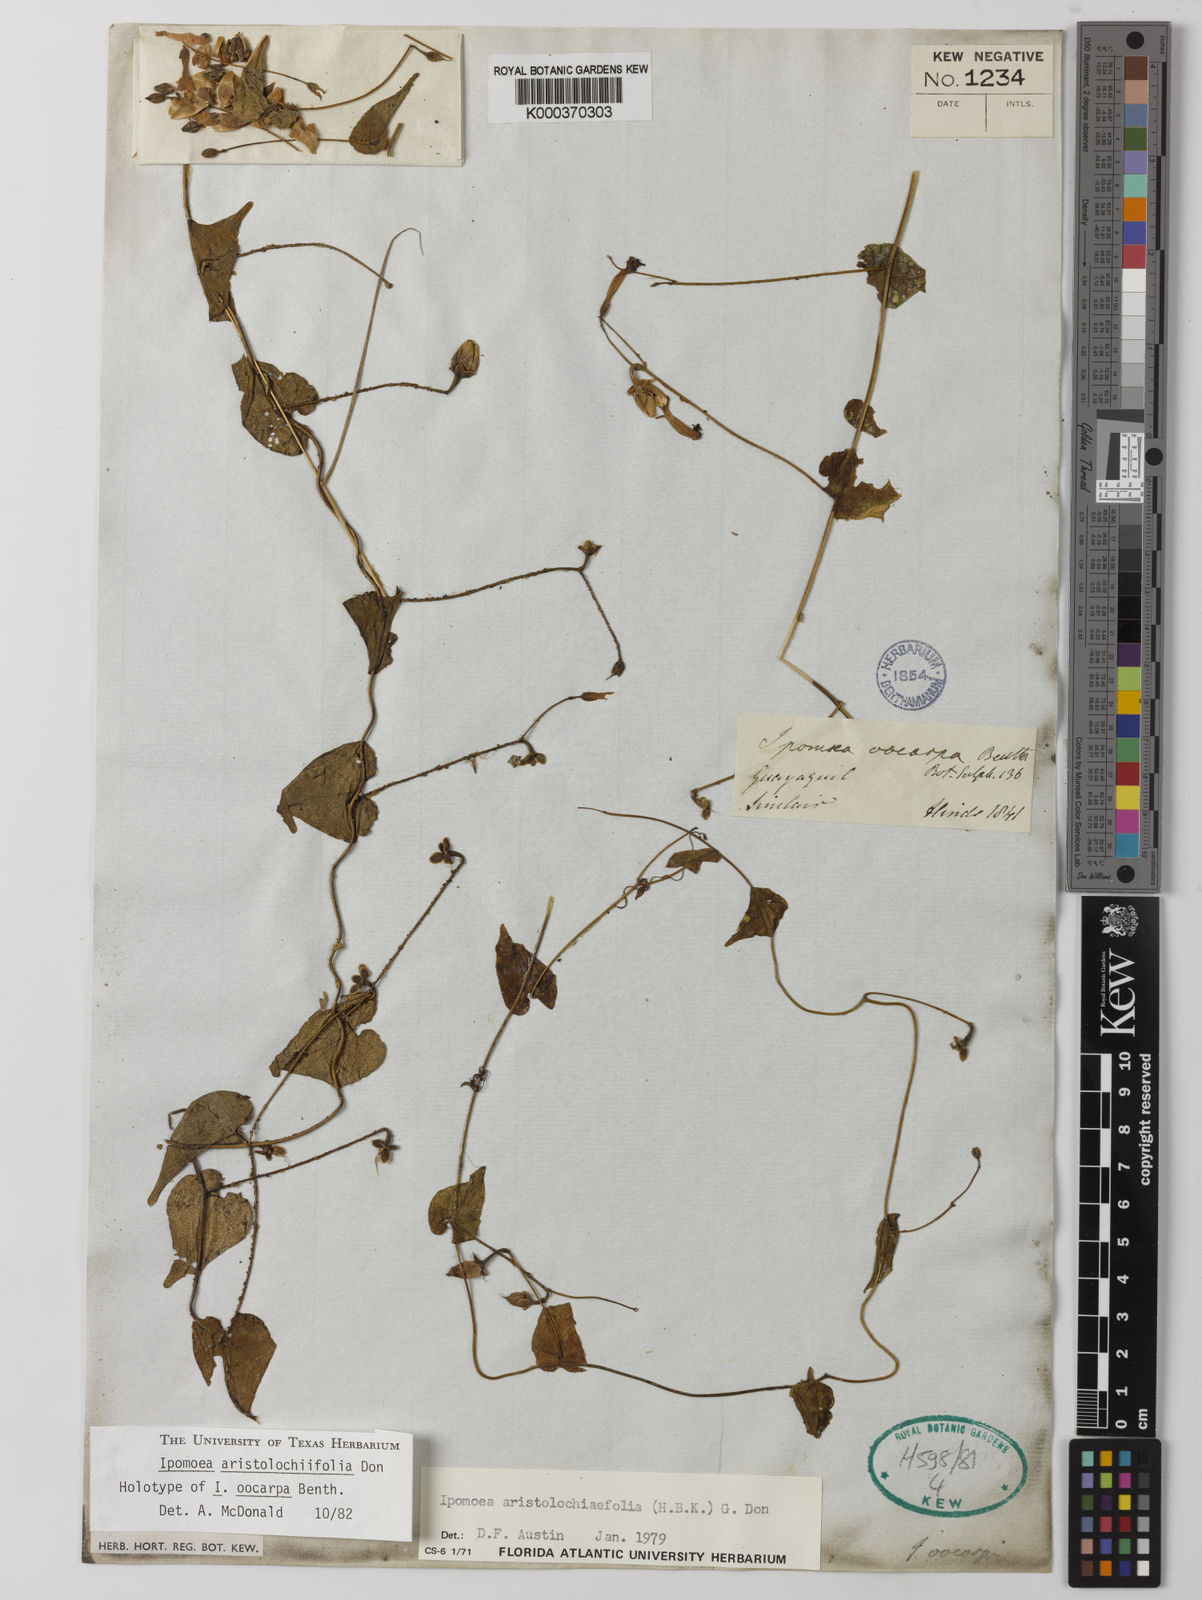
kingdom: Plantae
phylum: Tracheophyta
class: Magnoliopsida
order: Solanales
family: Convolvulaceae
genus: Ipomoea
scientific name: Ipomoea aristolochiifolia
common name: Aristolochia-leaved morning-glory
